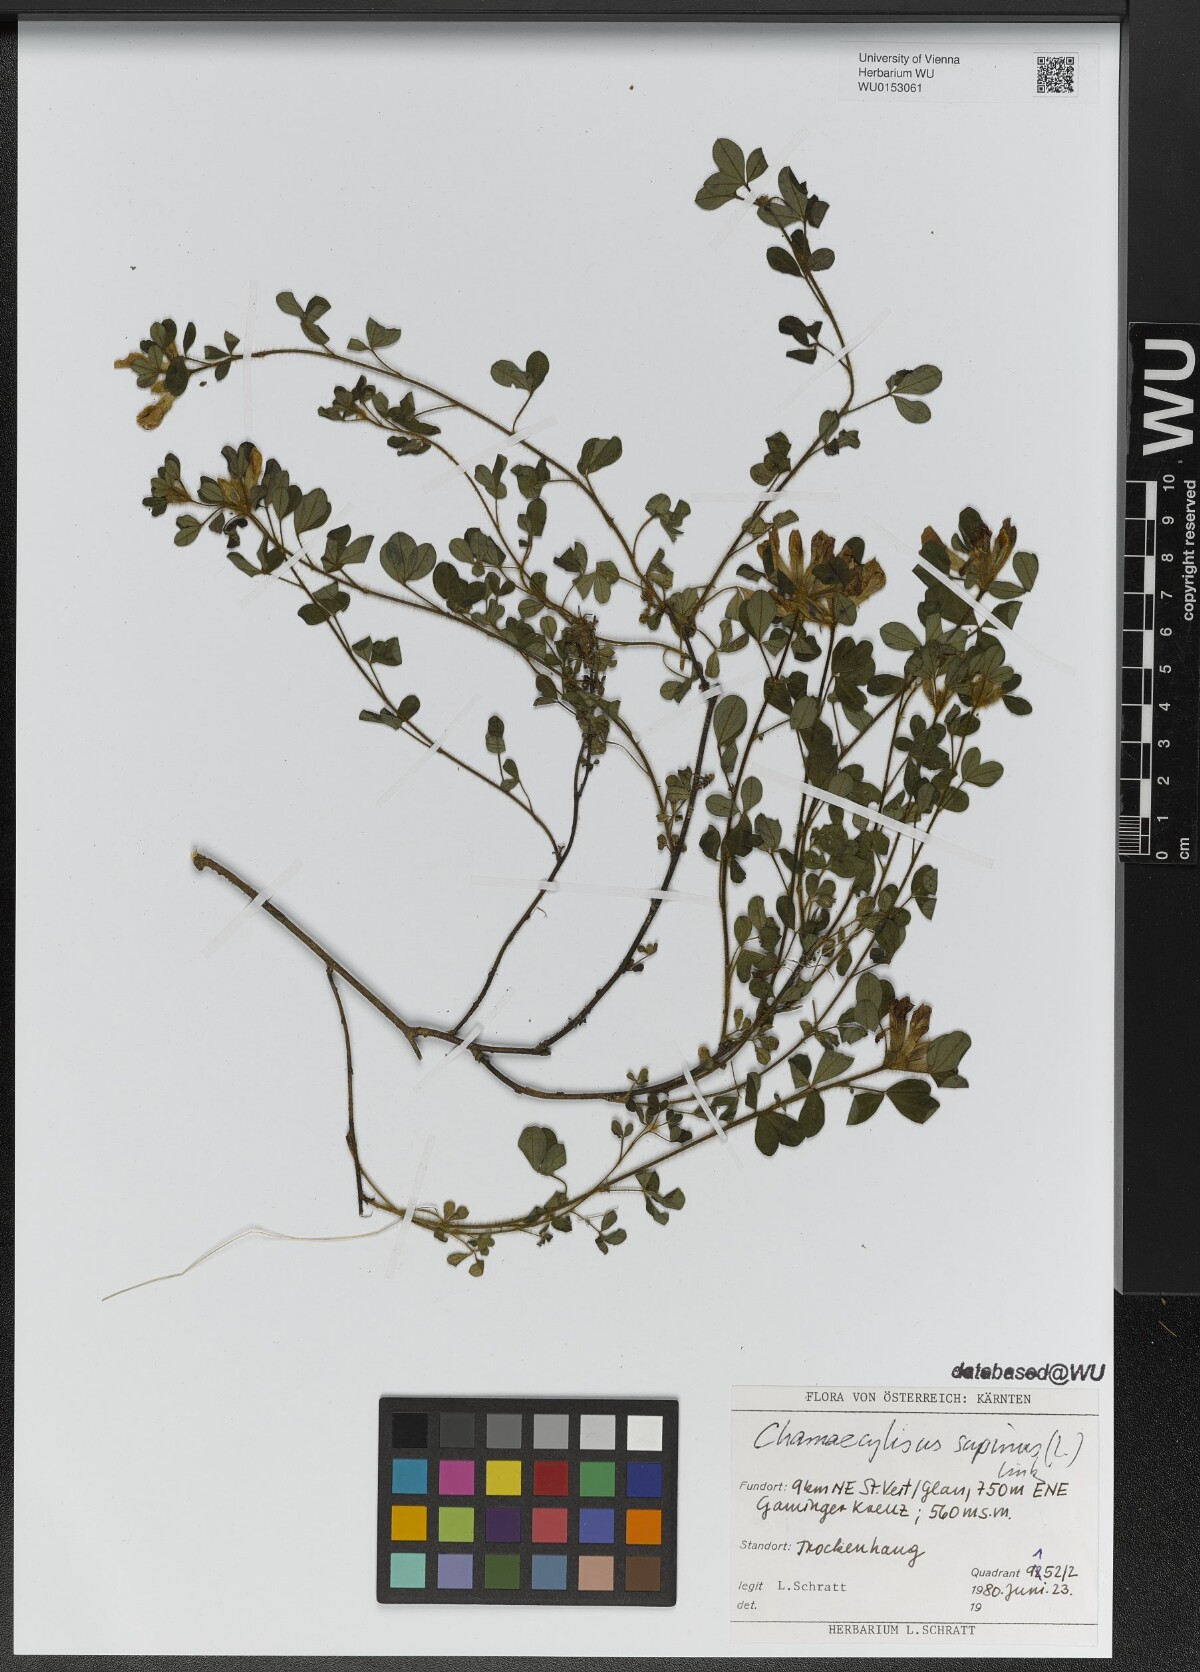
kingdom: Plantae
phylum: Tracheophyta
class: Magnoliopsida
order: Fabales
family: Fabaceae
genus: Chamaecytisus
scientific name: Chamaecytisus supinus
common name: Clustered broom
